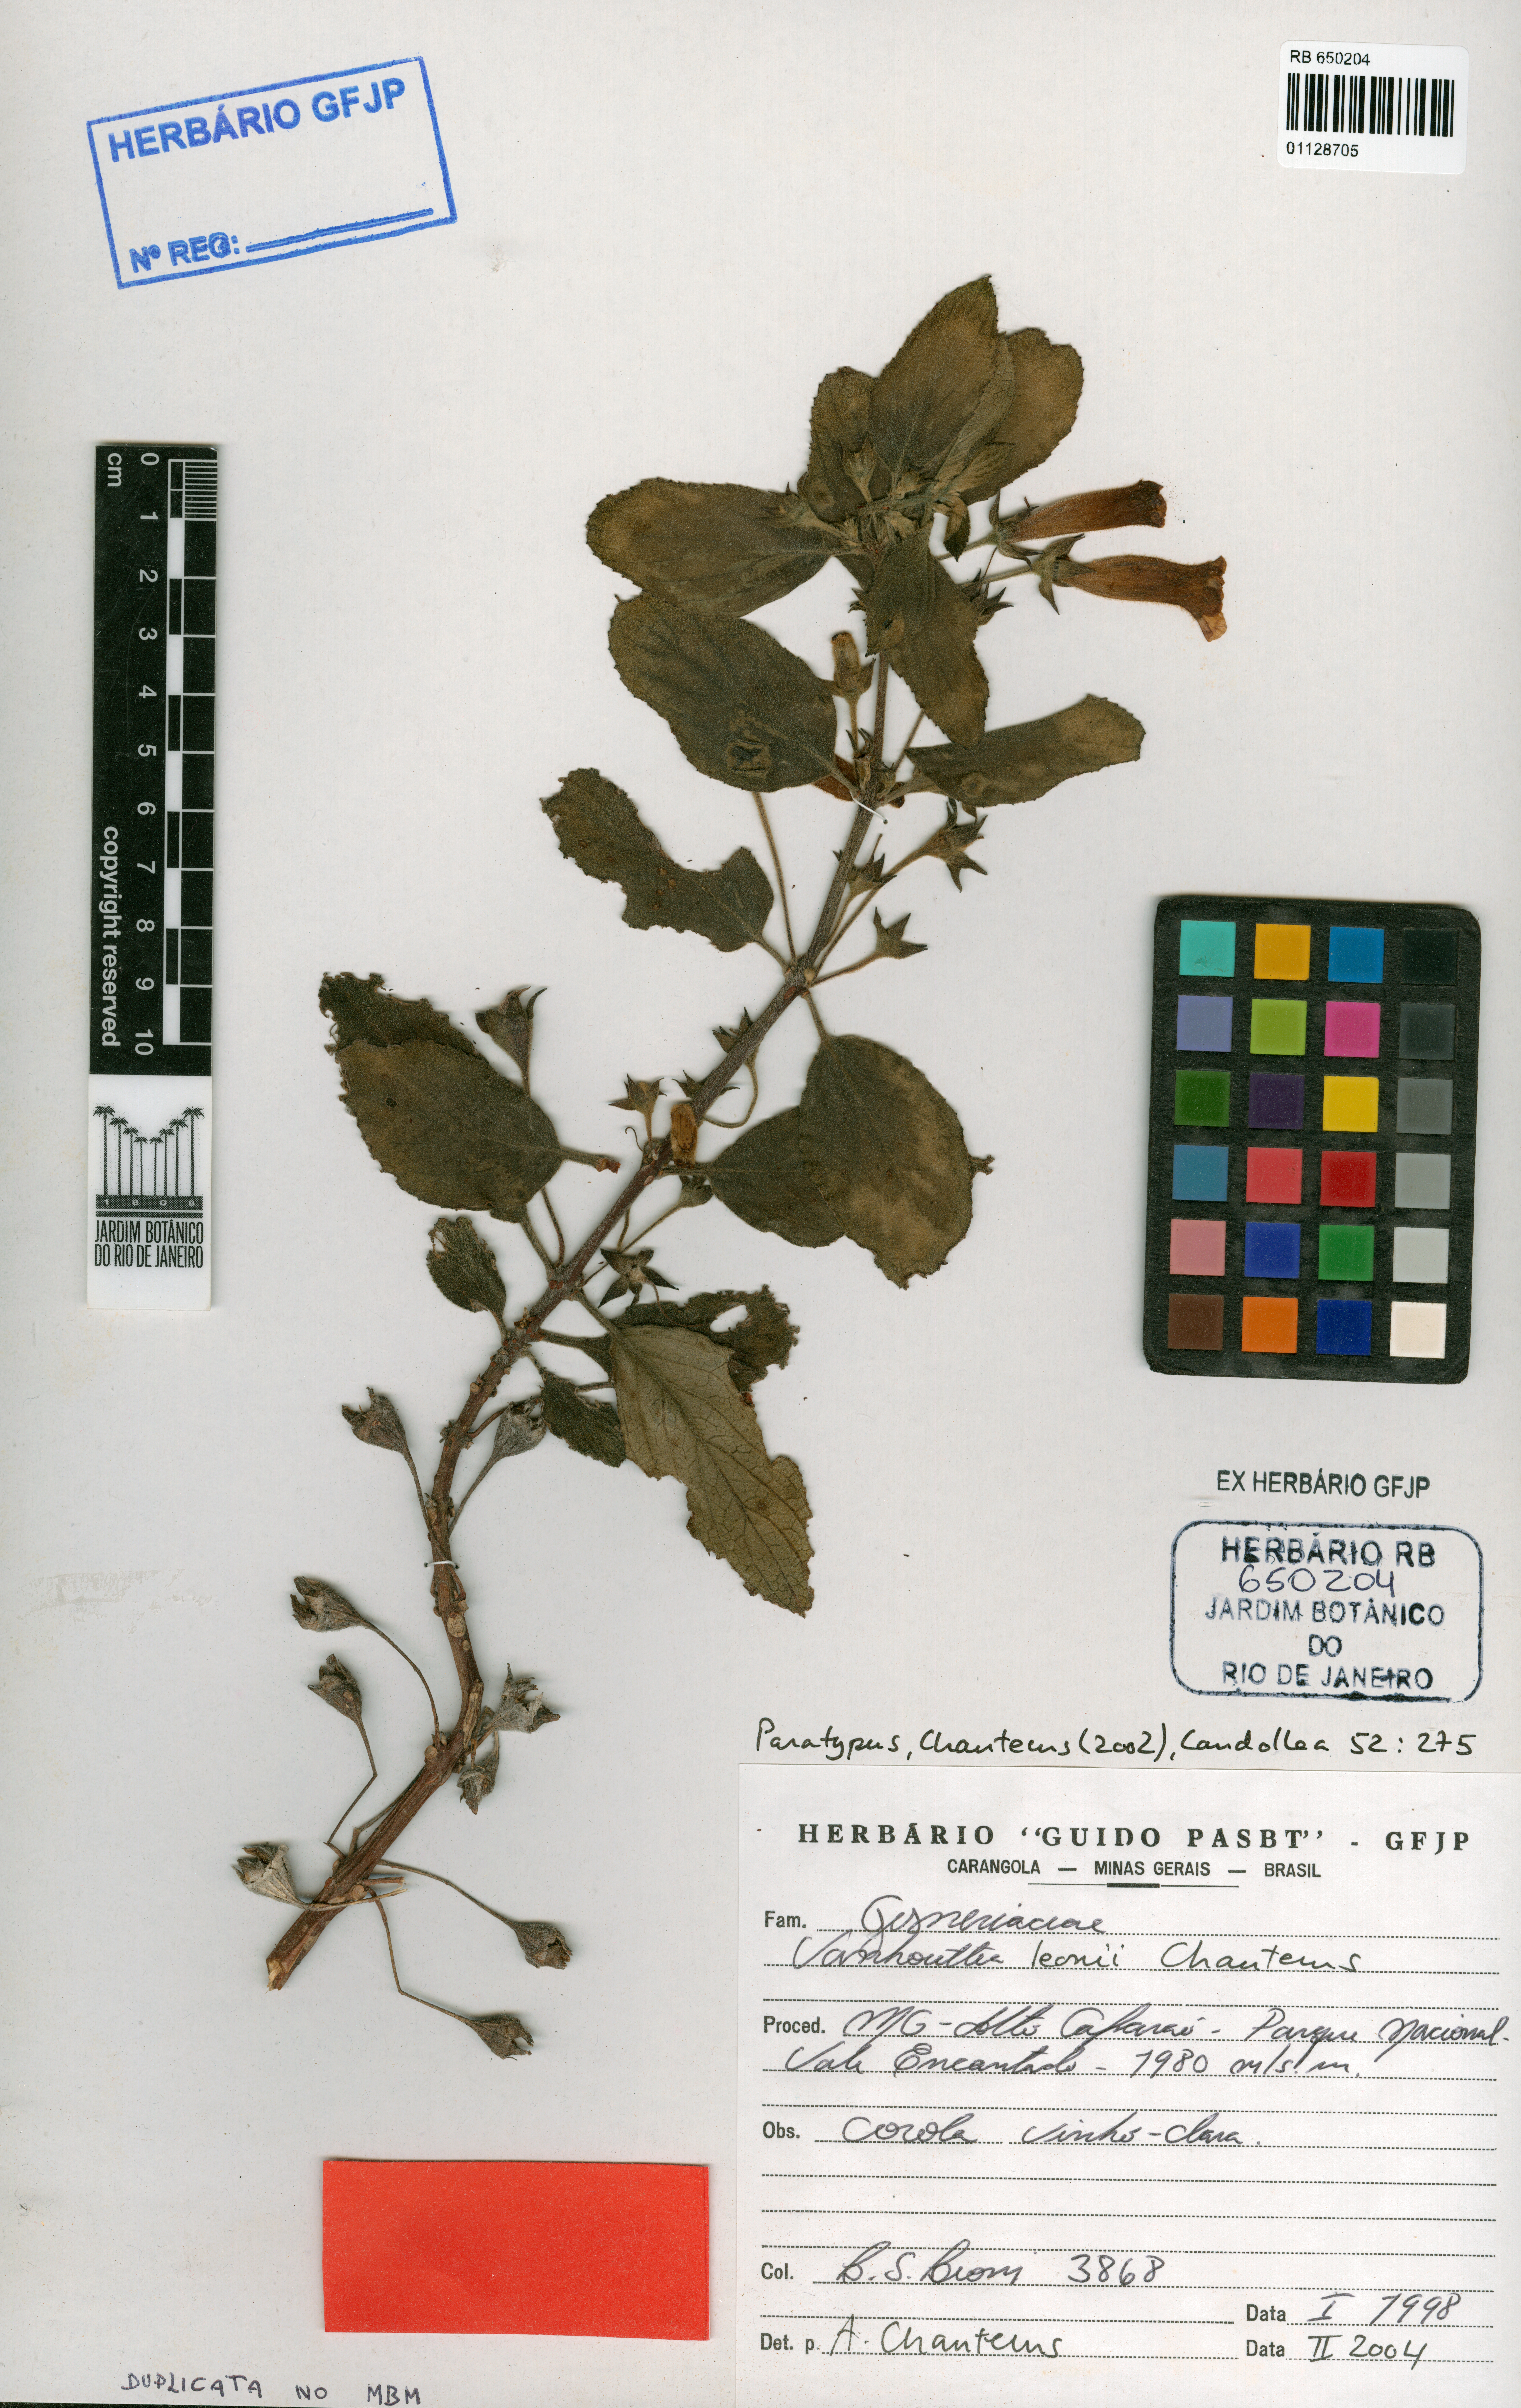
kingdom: Plantae
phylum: Tracheophyta
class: Magnoliopsida
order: Lamiales
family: Gesneriaceae
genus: Vanhouttea
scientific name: Vanhouttea leonii
